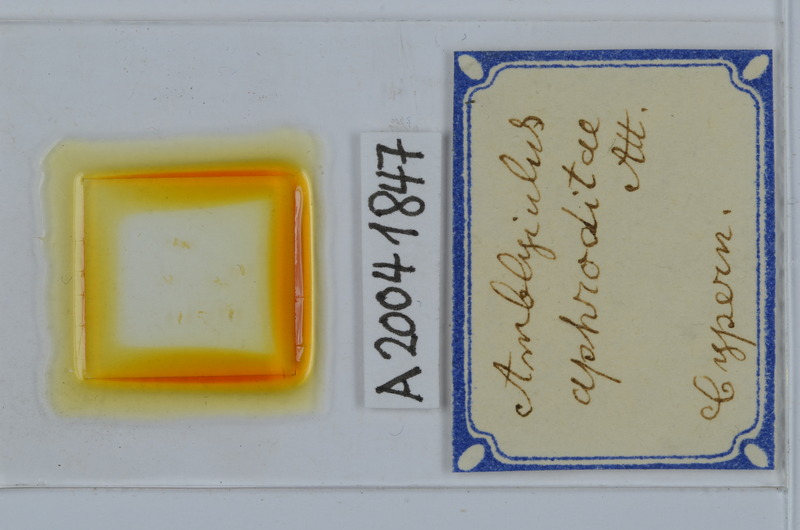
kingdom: Animalia
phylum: Arthropoda
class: Diplopoda
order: Julida
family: Julidae
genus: Amblyiulus
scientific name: Amblyiulus aphroditae
